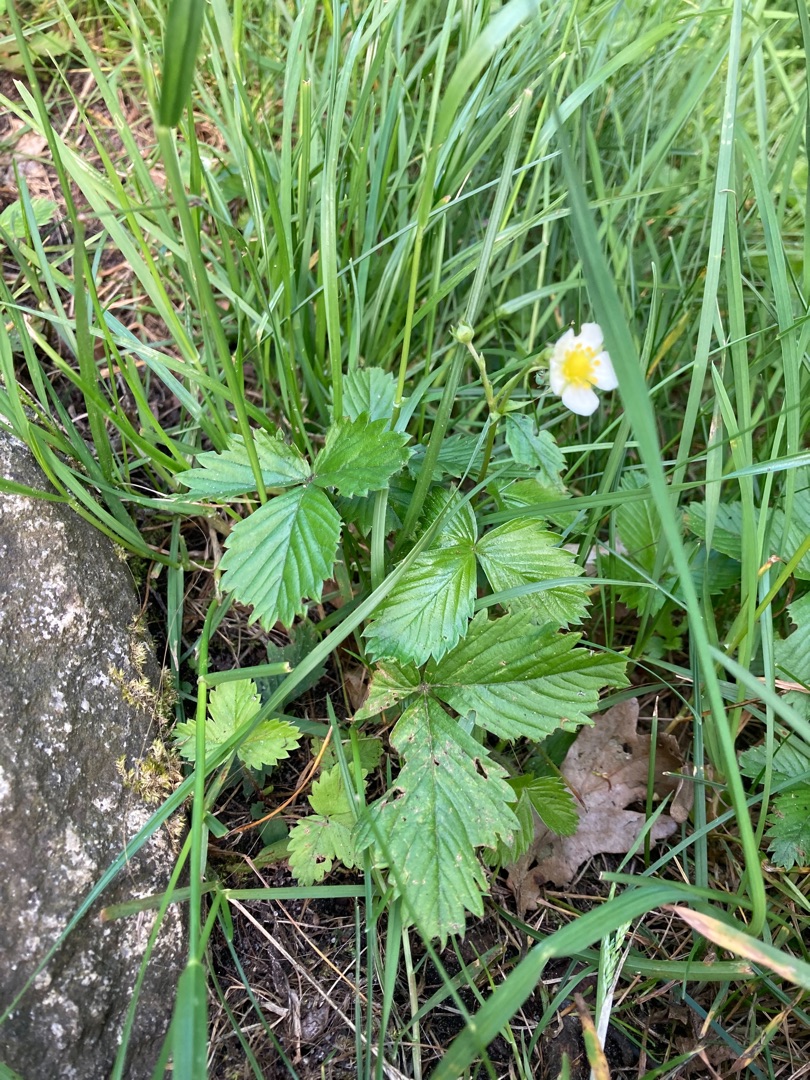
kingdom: Plantae
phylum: Tracheophyta
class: Magnoliopsida
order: Rosales
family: Rosaceae
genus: Fragaria
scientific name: Fragaria vesca
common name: Skov-jordbær
